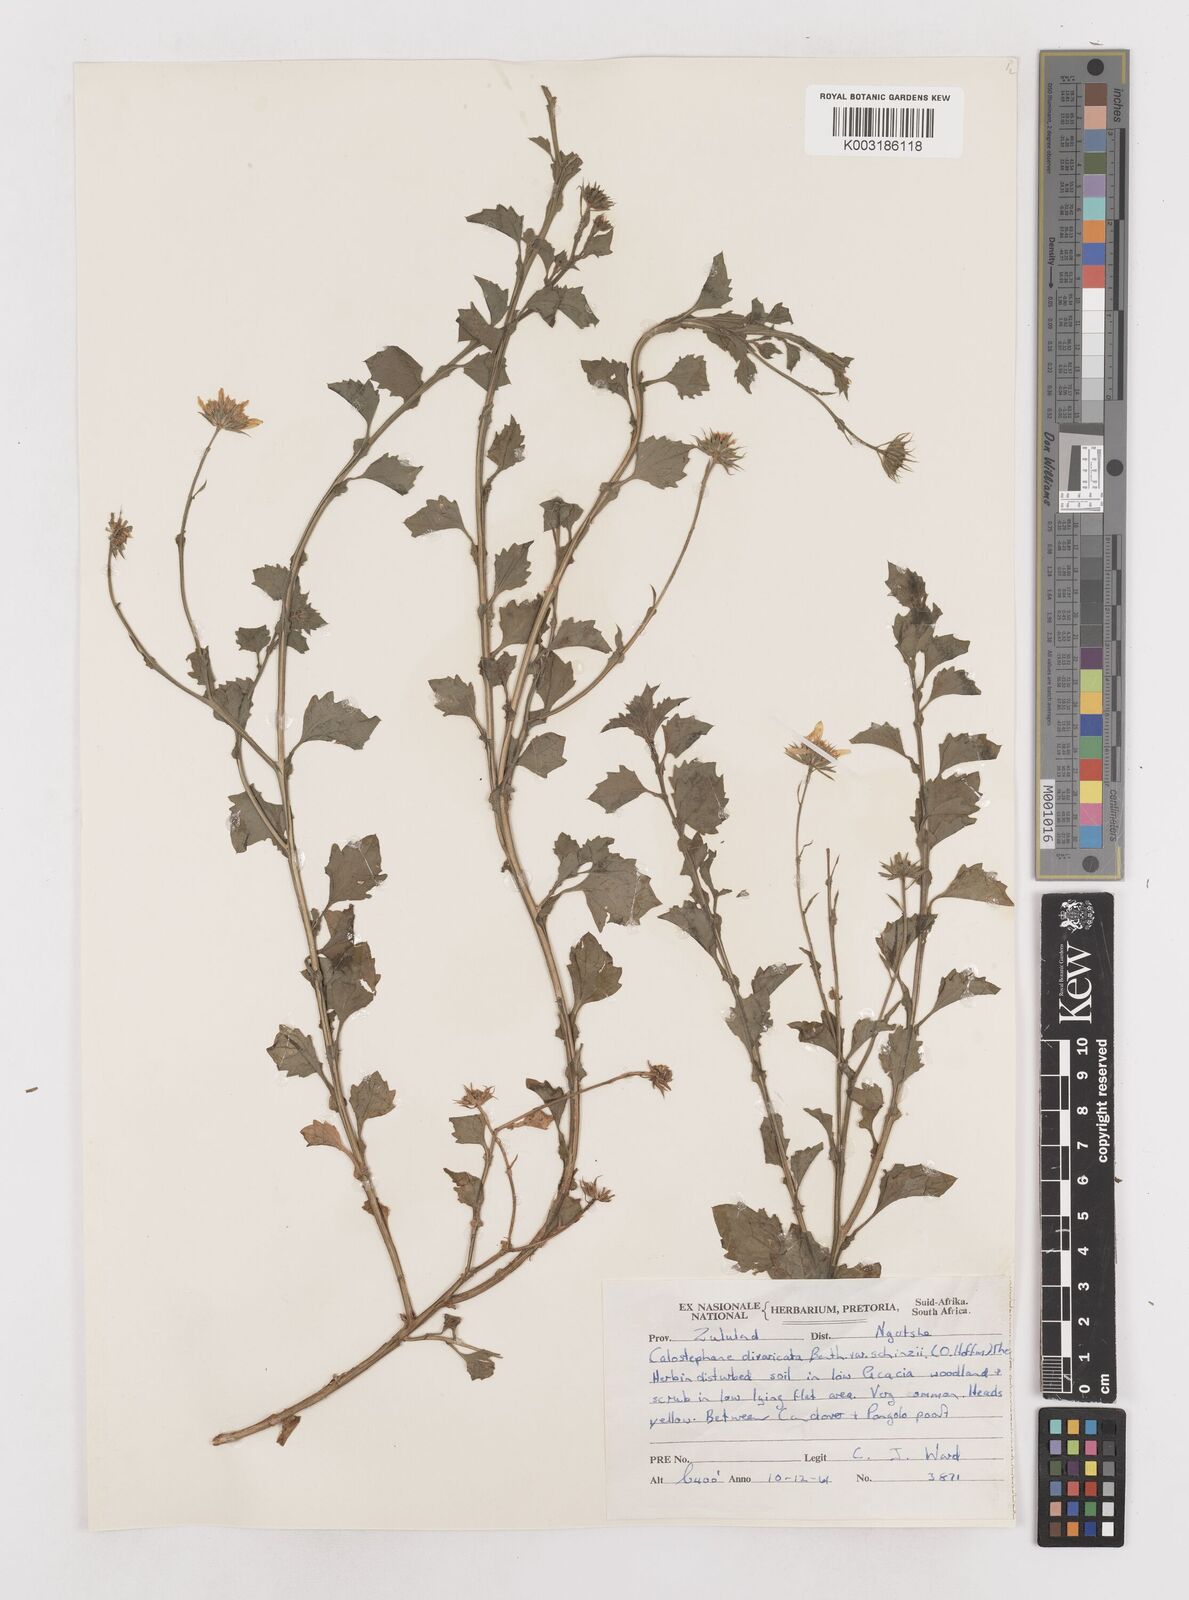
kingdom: Plantae
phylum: Tracheophyta
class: Magnoliopsida
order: Asterales
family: Asteraceae
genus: Calostephane
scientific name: Calostephane divaricata
